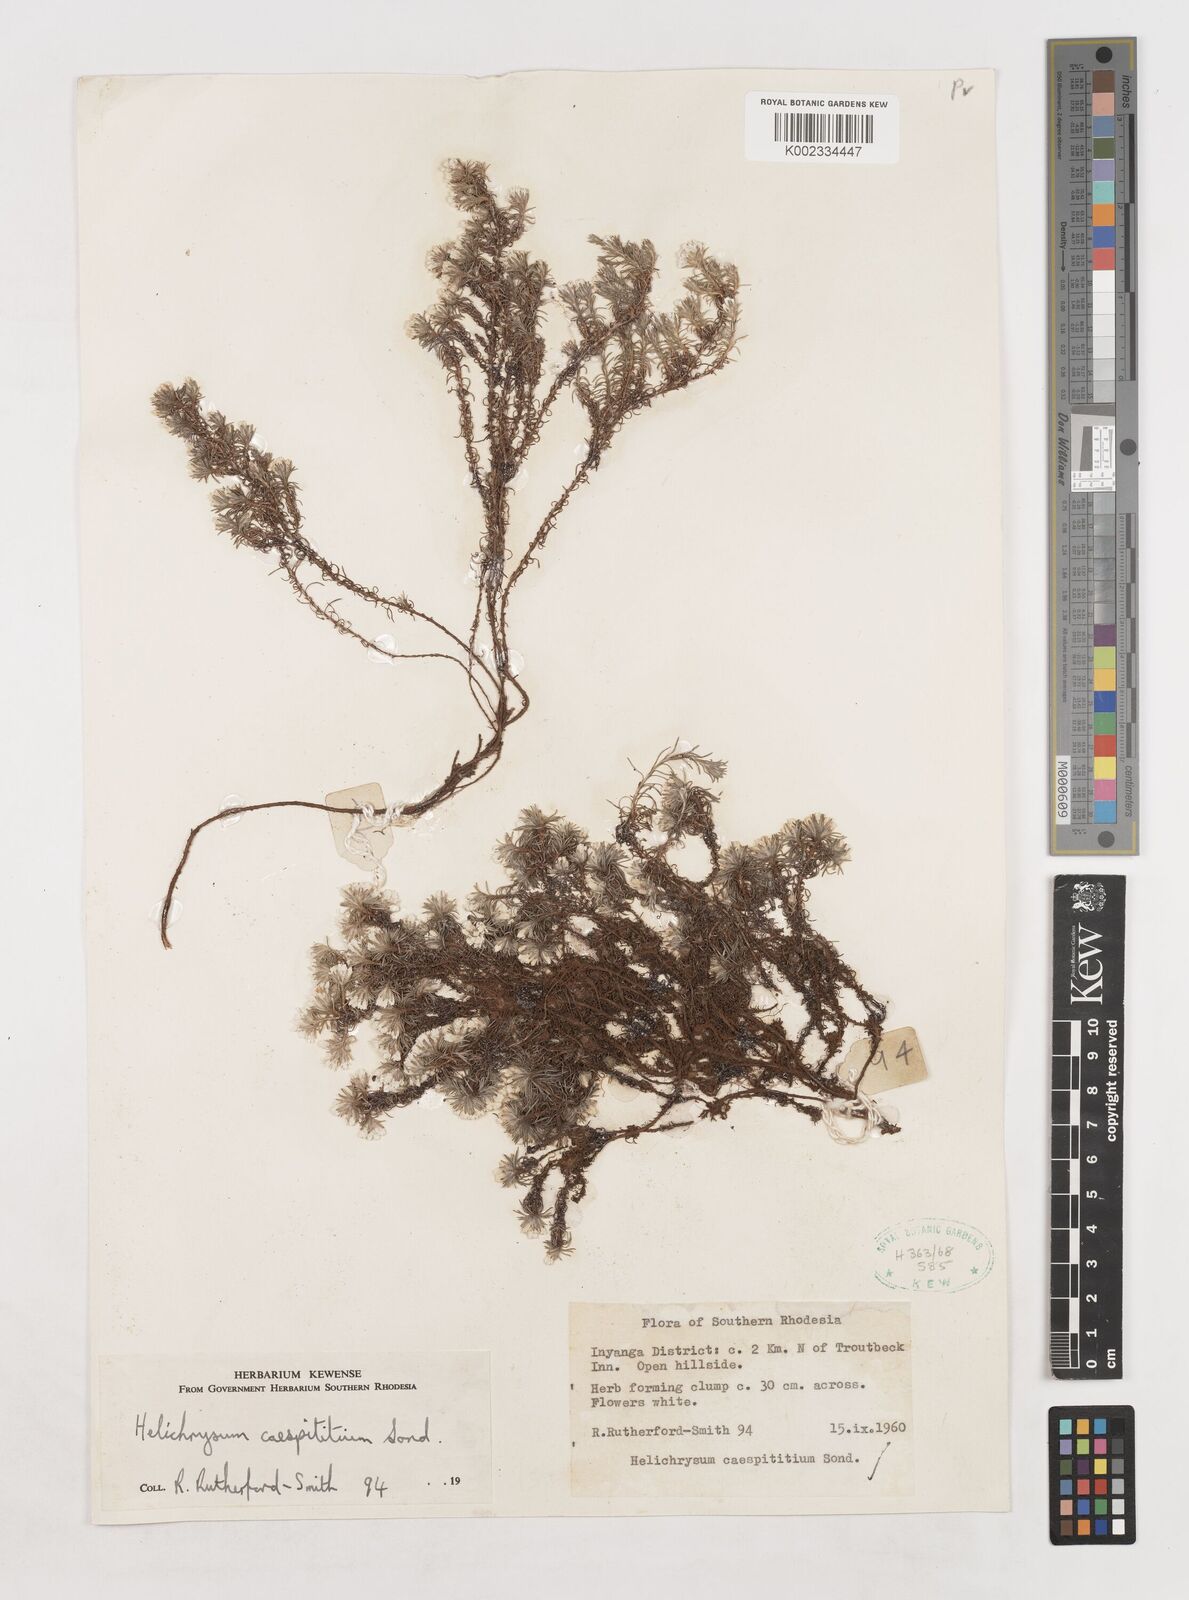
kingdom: Plantae
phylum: Tracheophyta
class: Magnoliopsida
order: Asterales
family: Asteraceae
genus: Helichrysum
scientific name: Helichrysum caespititium
